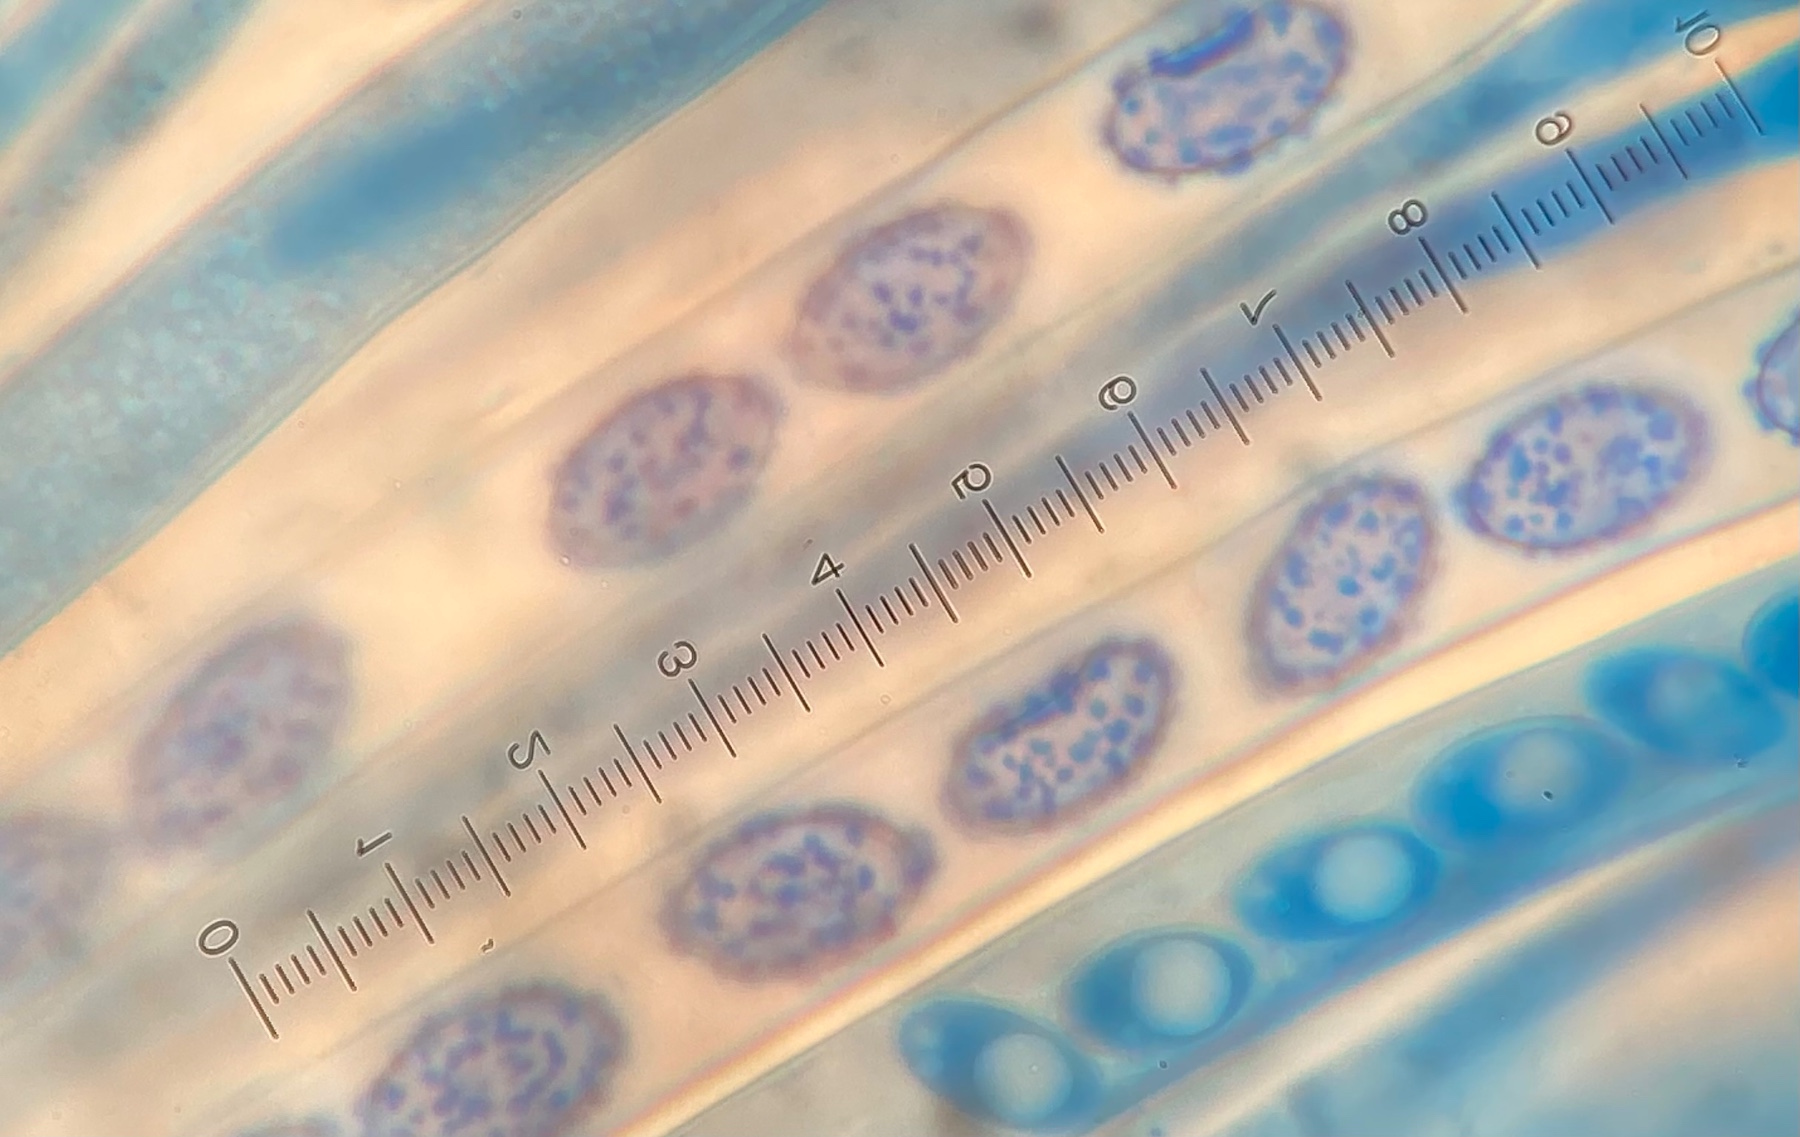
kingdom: Fungi
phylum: Ascomycota
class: Pezizomycetes
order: Pezizales
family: Pezizaceae
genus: Paragalactinia
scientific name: Paragalactinia succosella
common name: gulnende bægersvamp
